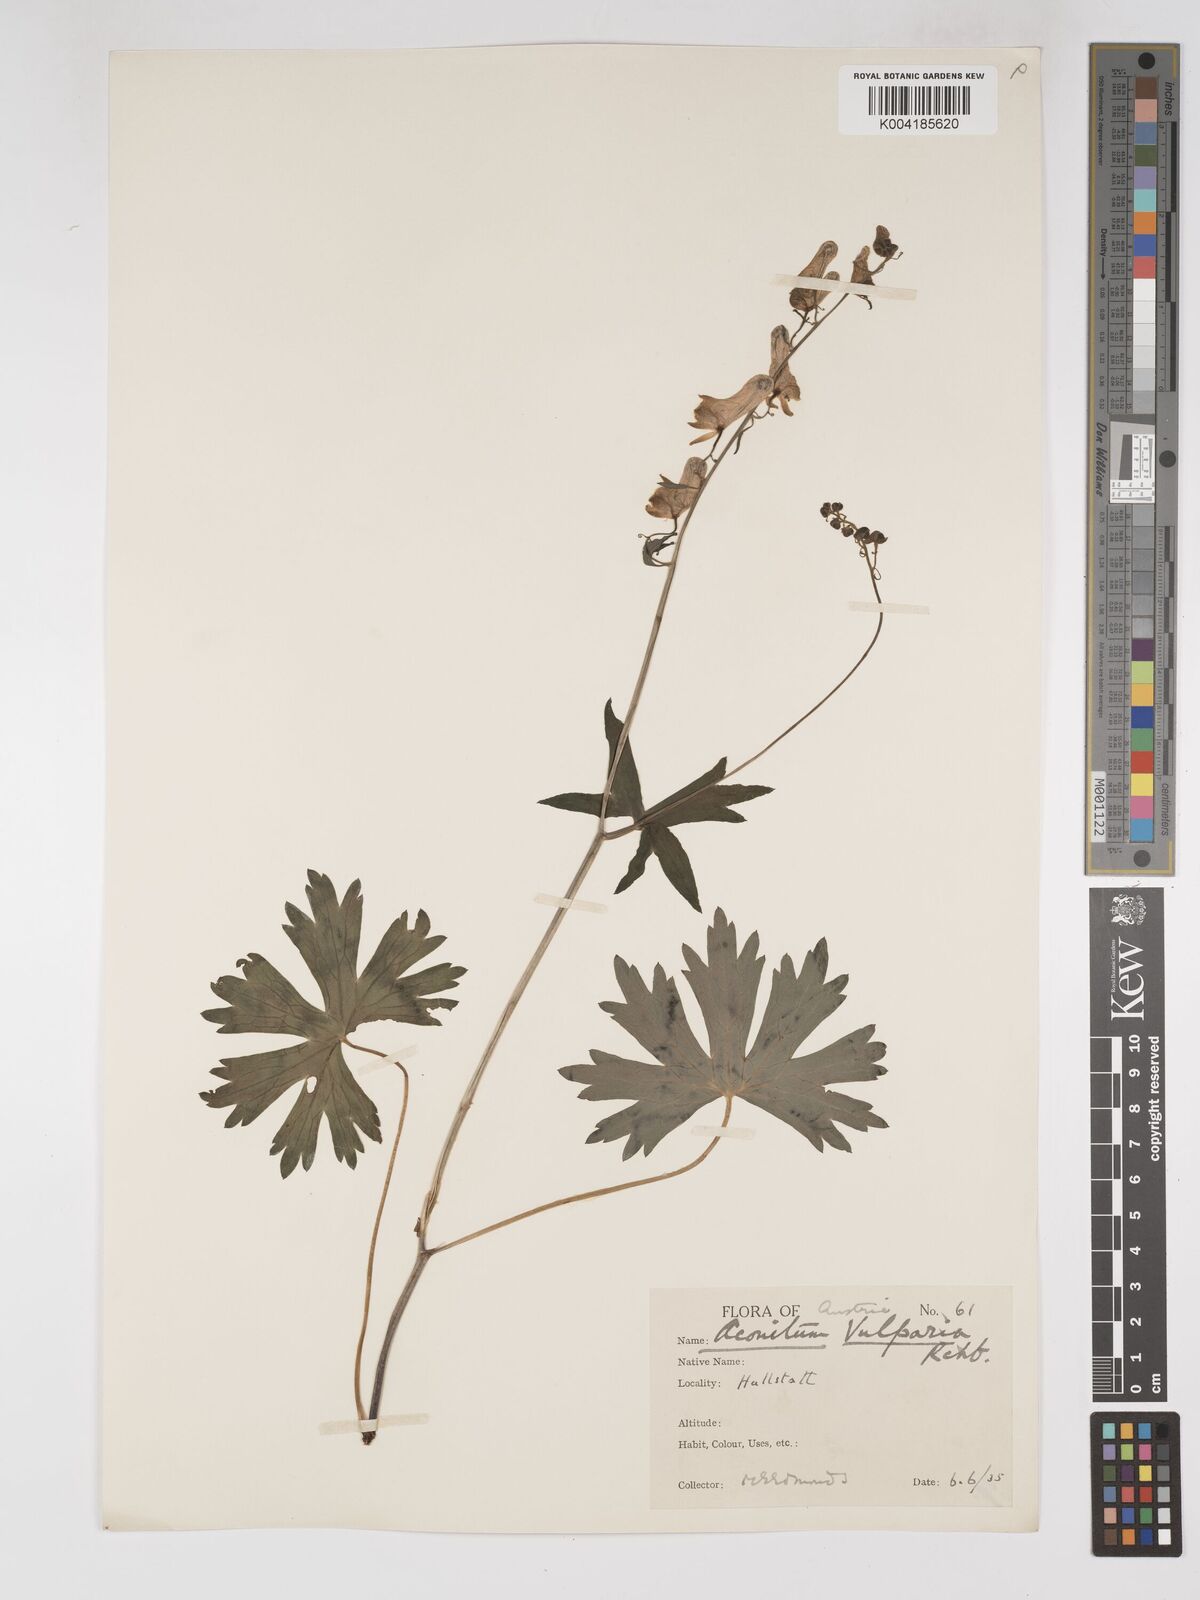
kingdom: Plantae
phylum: Tracheophyta
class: Magnoliopsida
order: Ranunculales
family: Ranunculaceae
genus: Aconitum
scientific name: Aconitum lycoctonum
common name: Wolf's-bane
